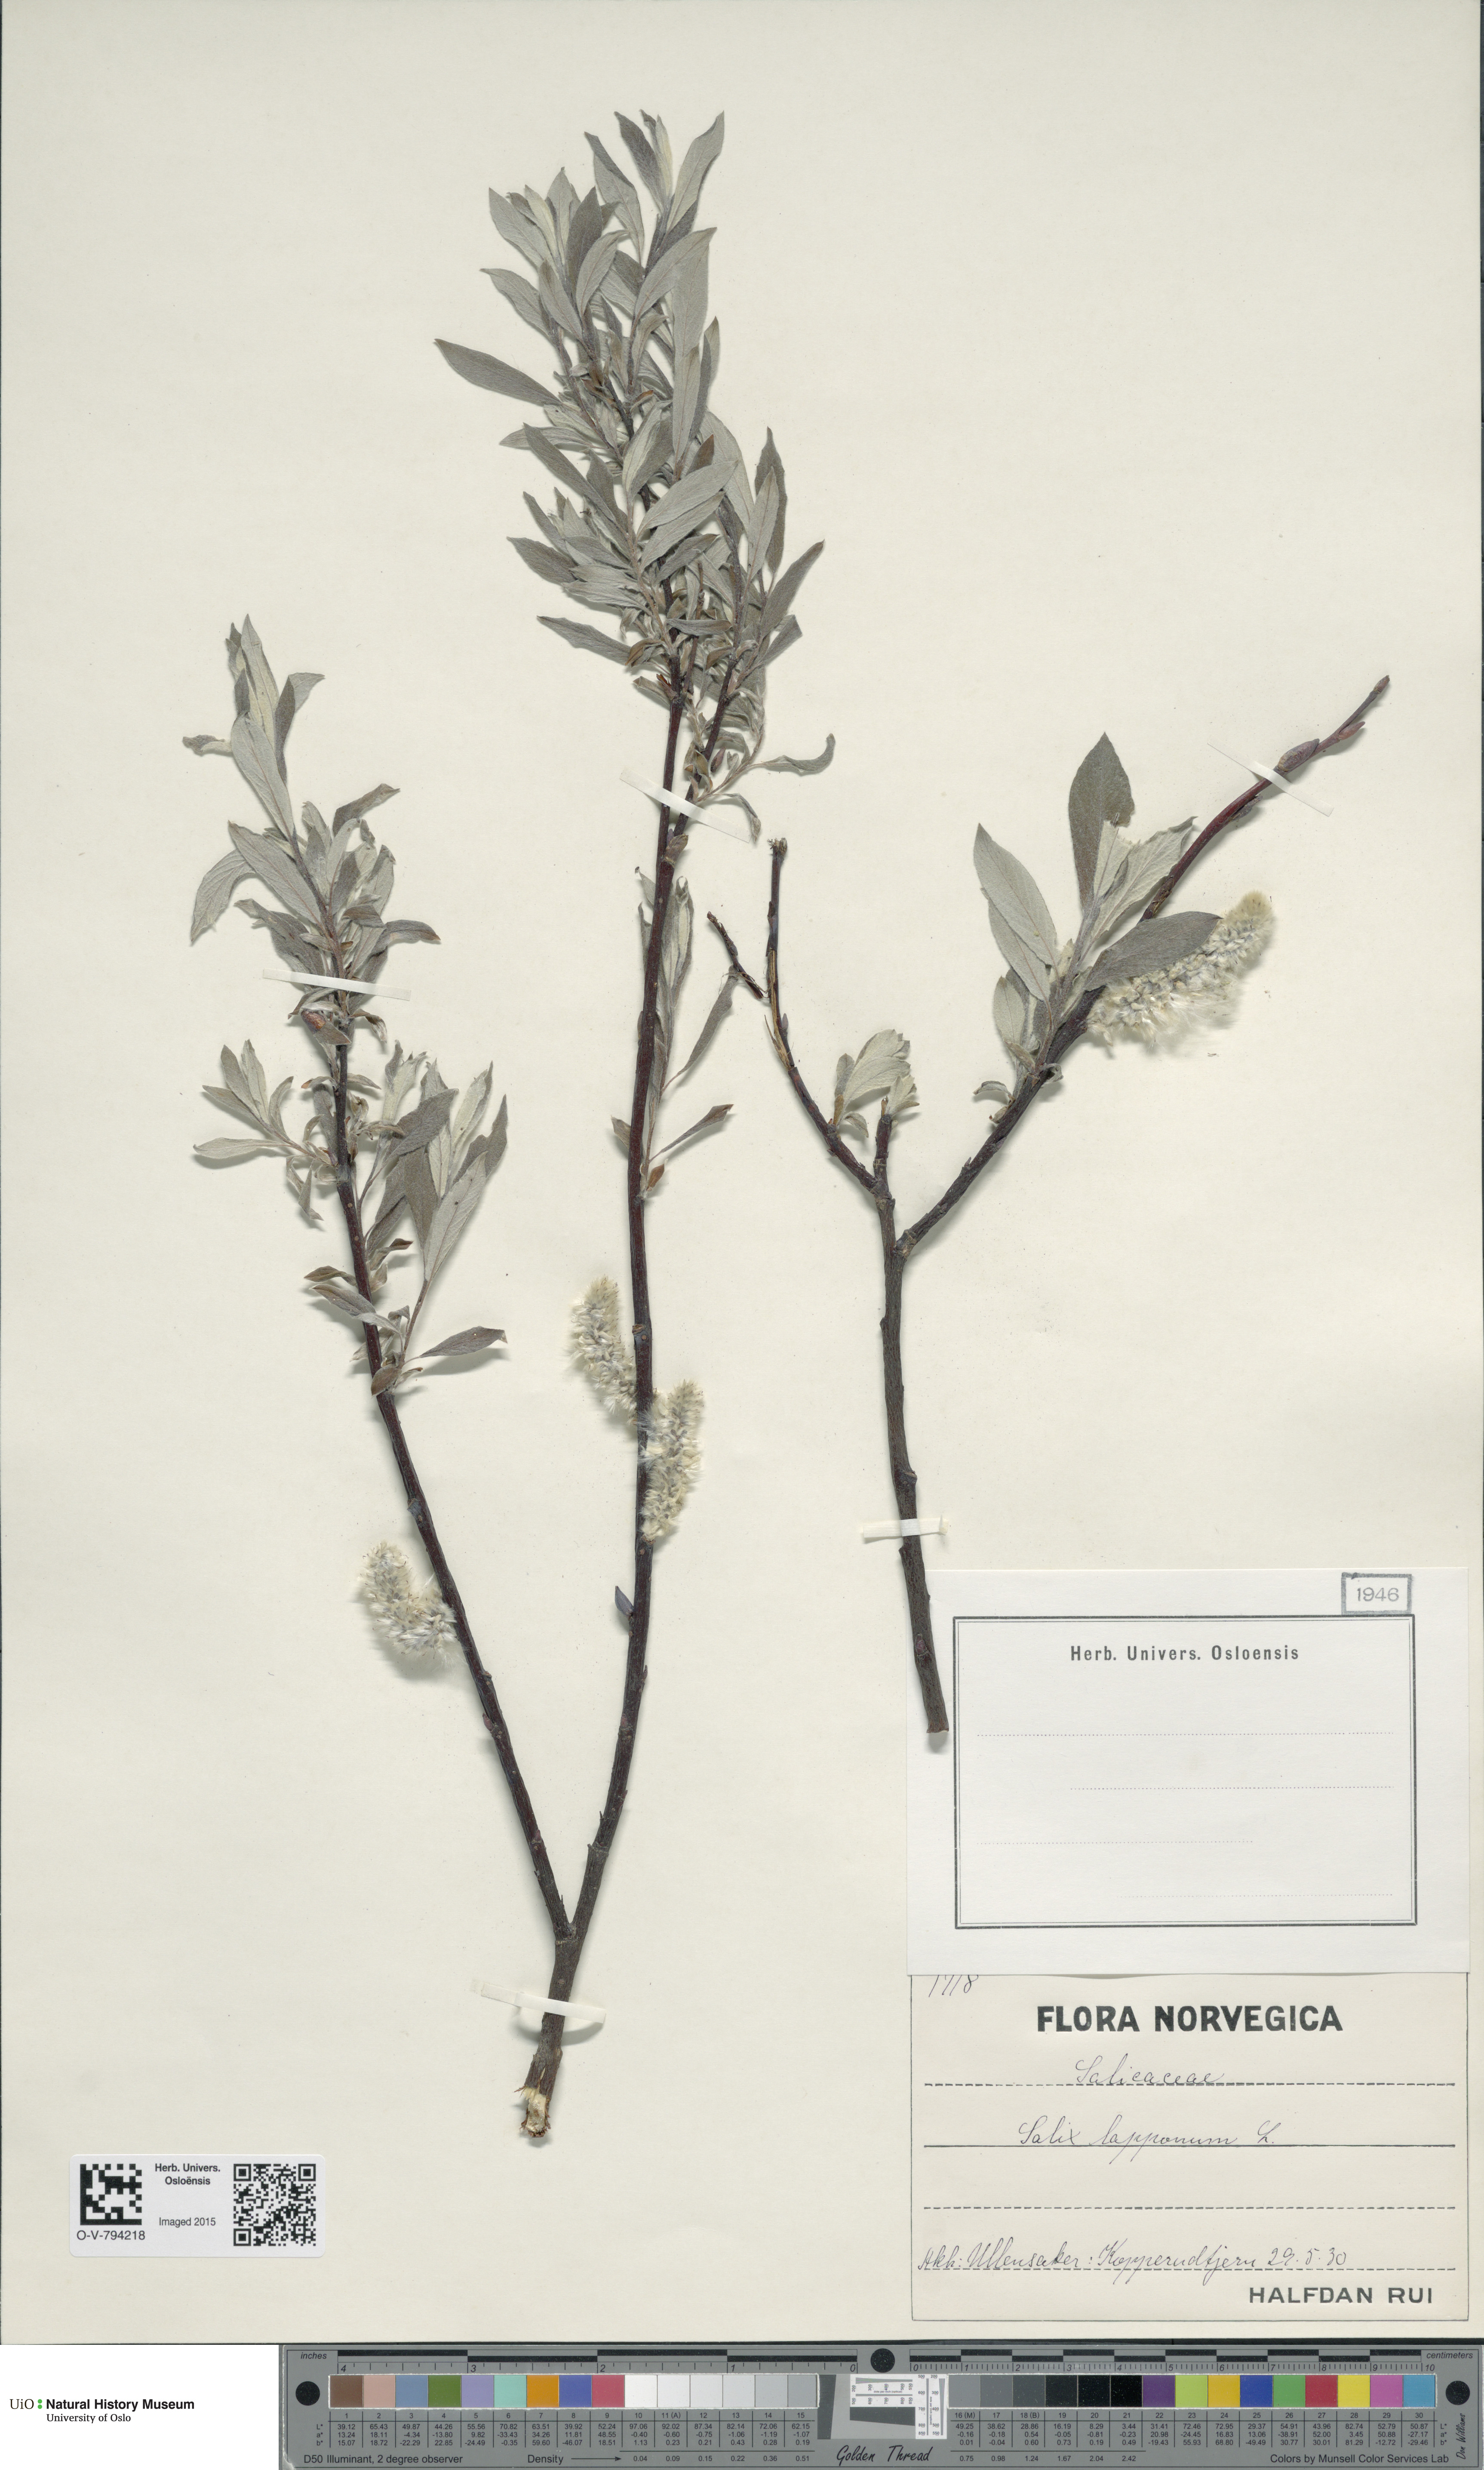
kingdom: Plantae
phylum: Tracheophyta
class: Magnoliopsida
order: Malpighiales
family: Salicaceae
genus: Salix
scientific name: Salix lapponum
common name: Downy willow
